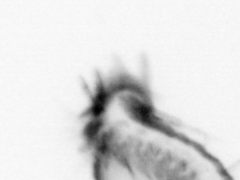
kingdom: Animalia
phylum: Annelida
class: Polychaeta
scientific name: Polychaeta
